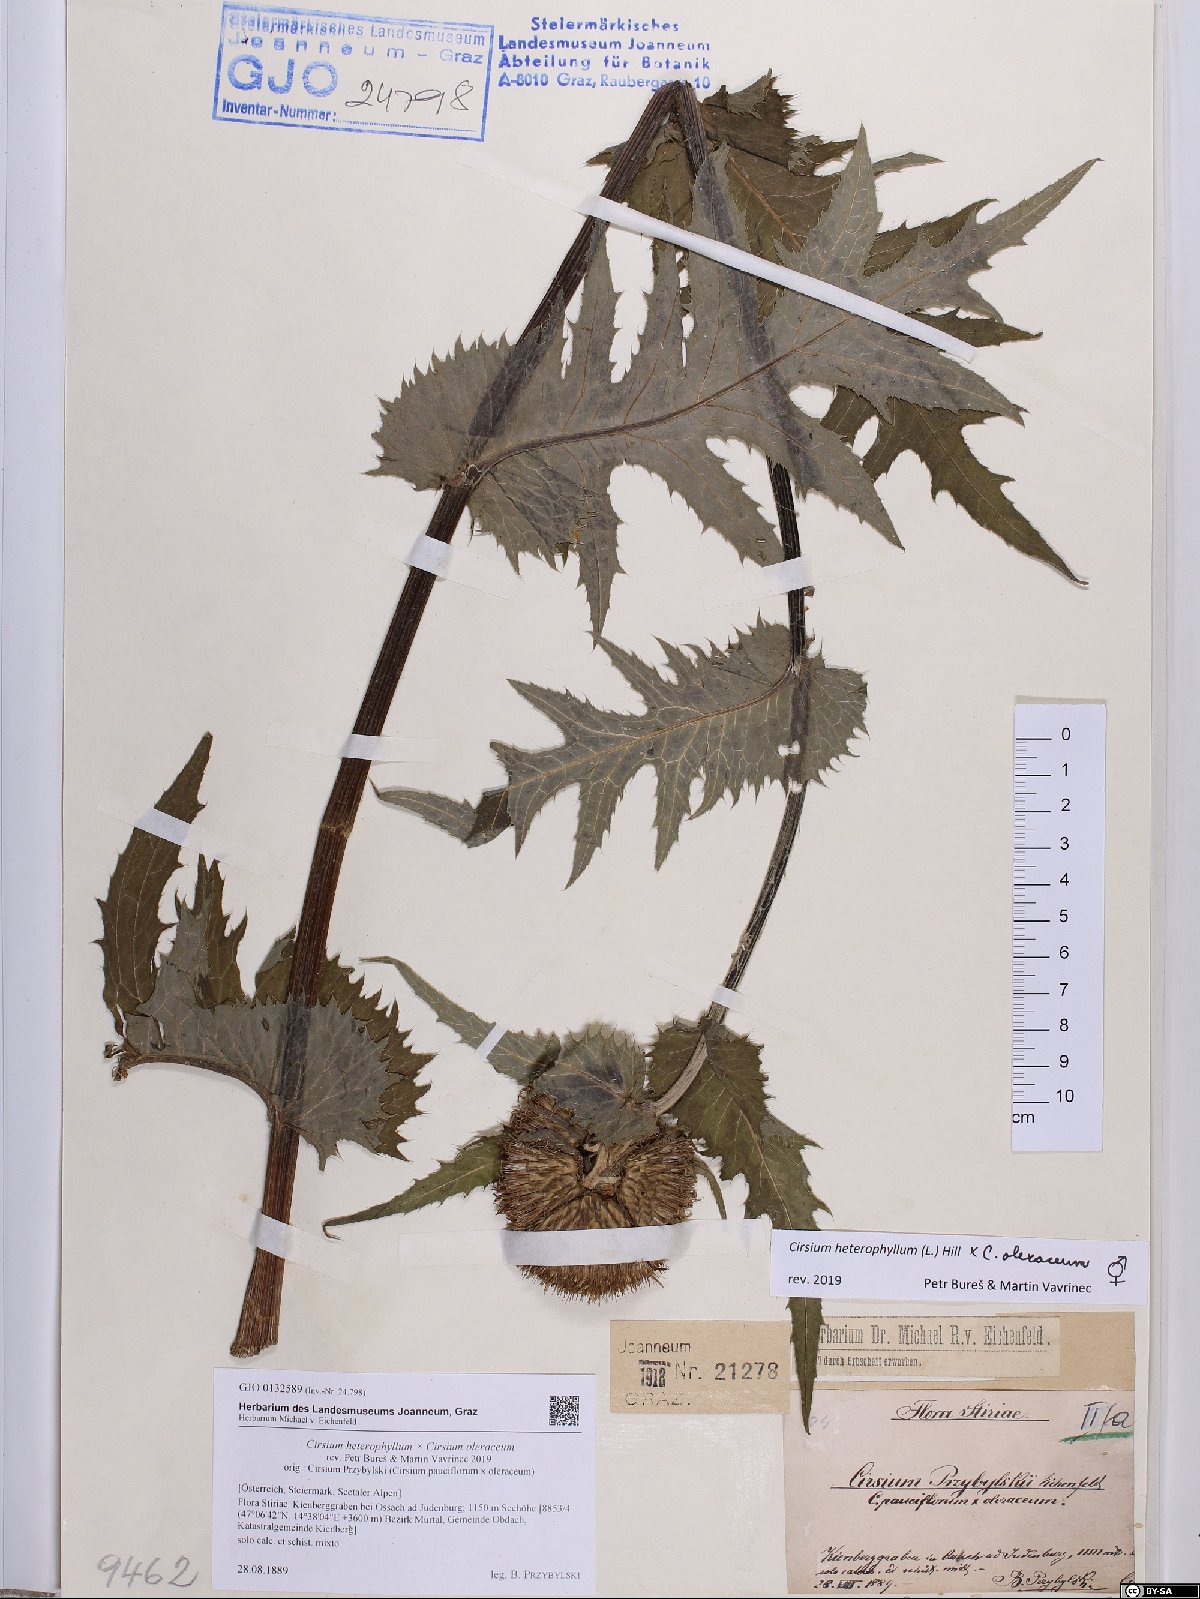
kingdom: Plantae
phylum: Tracheophyta
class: Magnoliopsida
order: Asterales
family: Asteraceae
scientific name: Asteraceae
